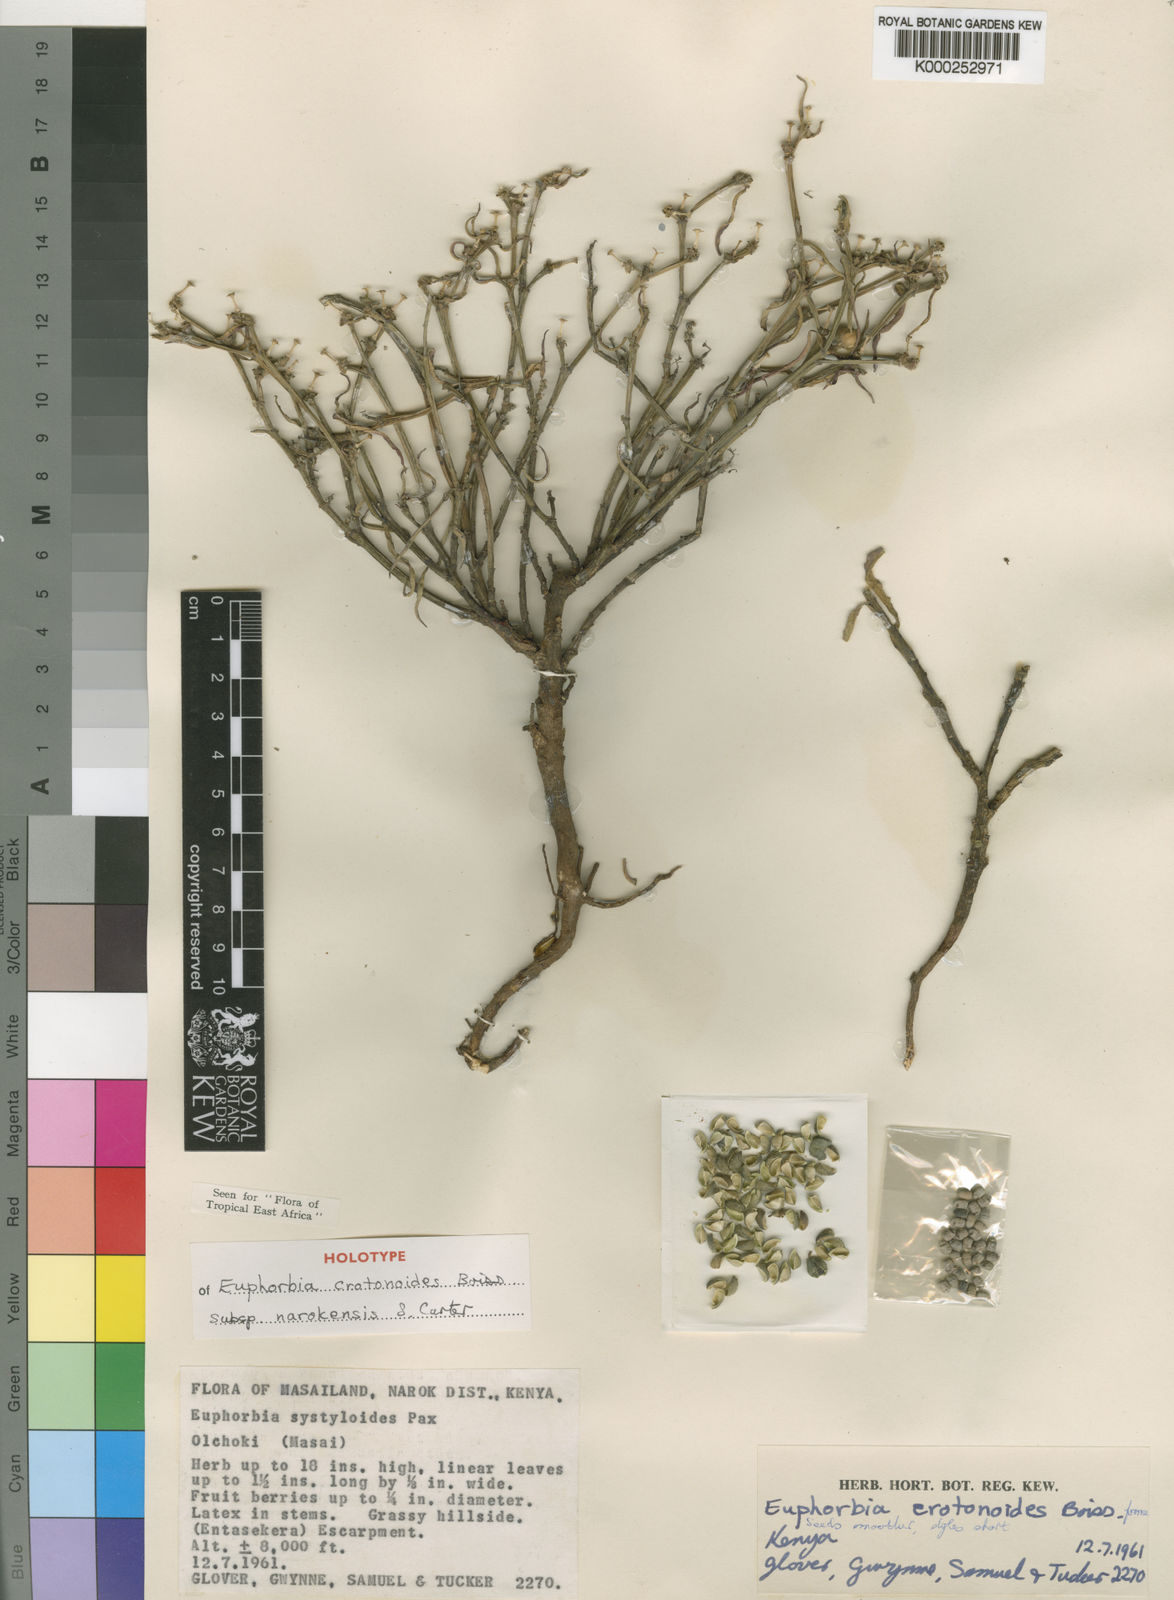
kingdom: Plantae
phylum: Tracheophyta
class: Magnoliopsida
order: Malpighiales
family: Euphorbiaceae
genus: Euphorbia
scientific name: Euphorbia crotonoides
